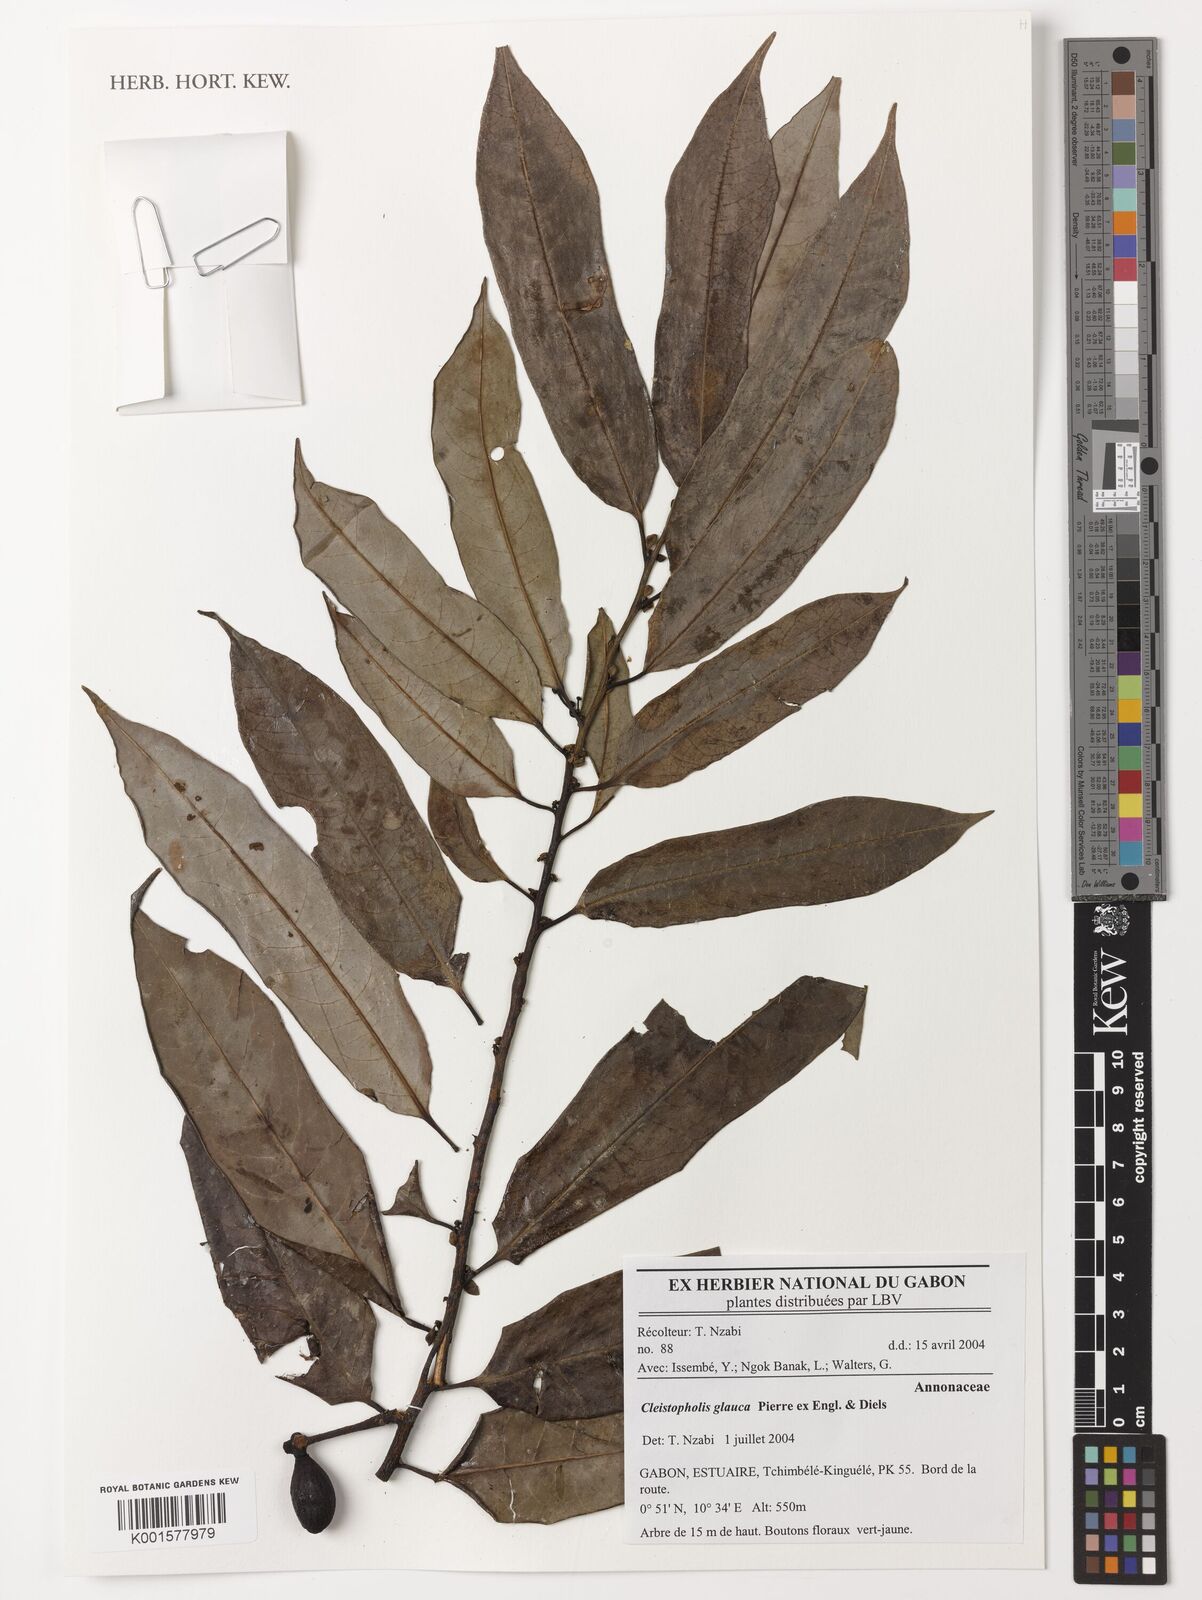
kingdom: Plantae
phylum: Tracheophyta
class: Magnoliopsida
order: Magnoliales
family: Annonaceae
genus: Cleistopholis
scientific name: Cleistopholis glauca
